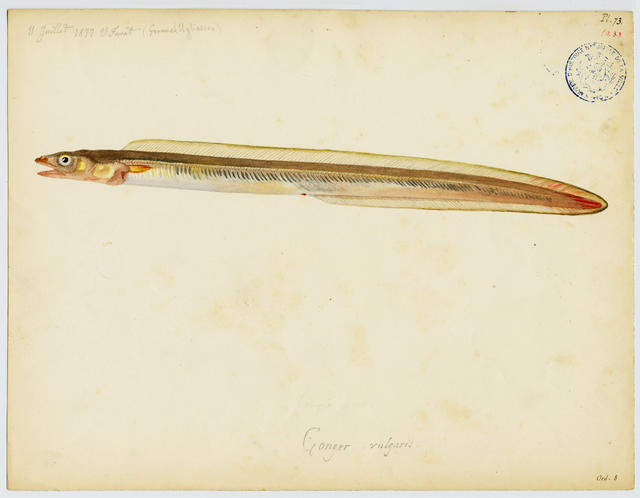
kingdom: Animalia
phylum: Chordata
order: Anguilliformes
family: Congridae
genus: Ariosoma
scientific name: Ariosoma balearicum
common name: Bandtooth conger
